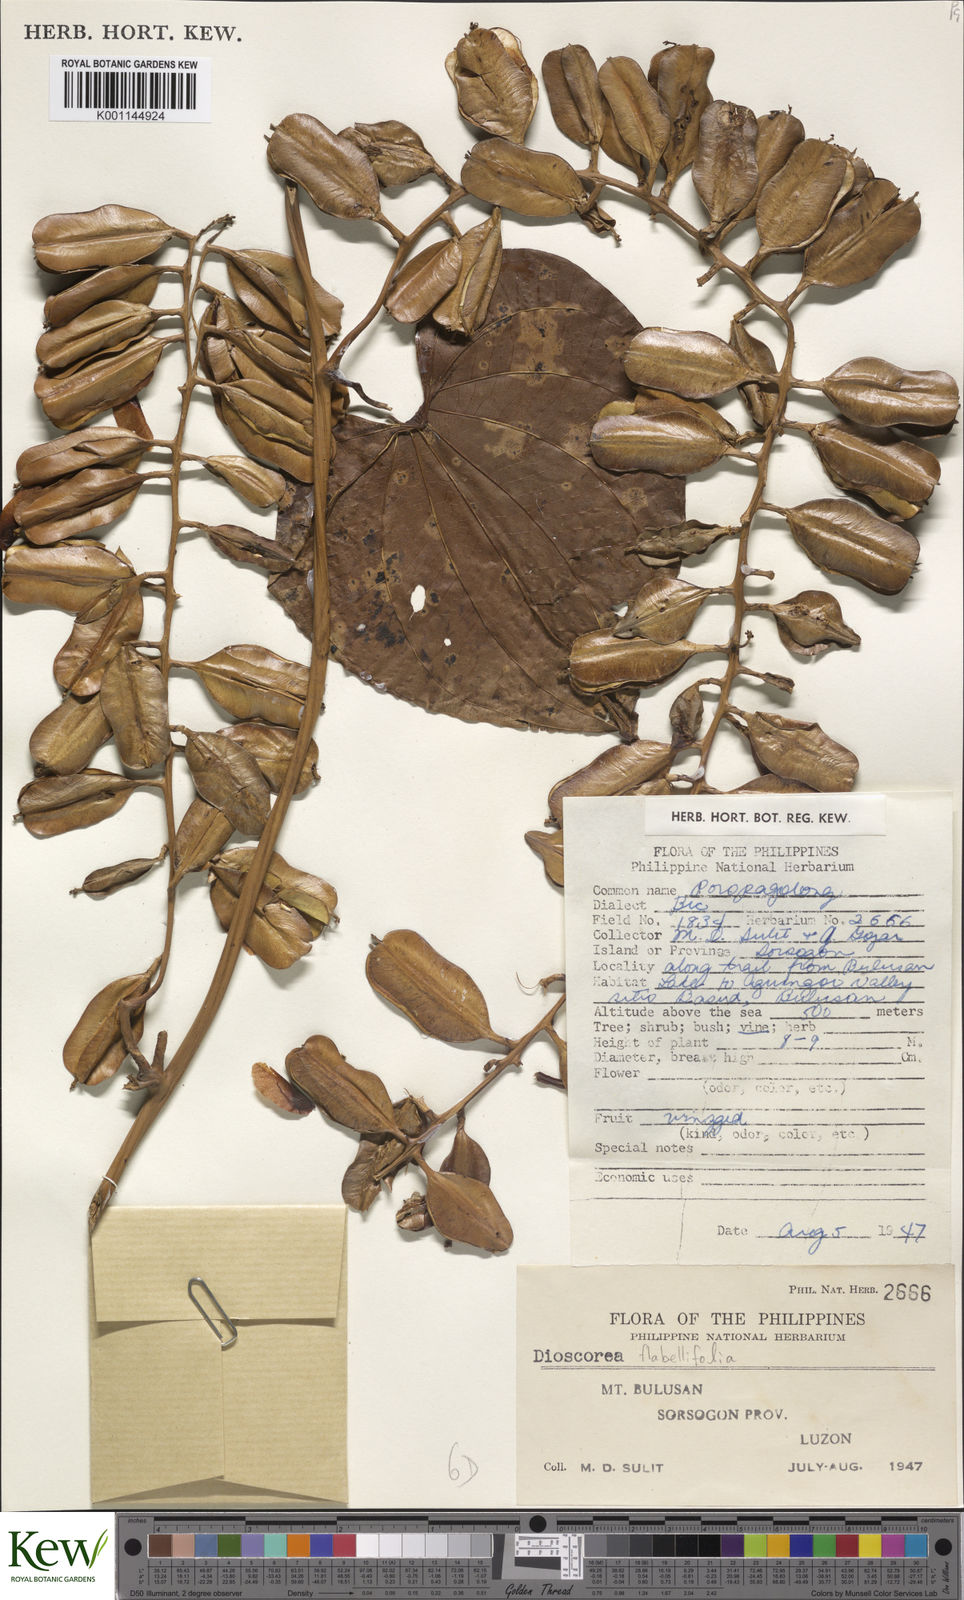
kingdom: Plantae
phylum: Tracheophyta
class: Liliopsida
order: Dioscoreales
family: Dioscoreaceae
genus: Dioscorea
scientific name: Dioscorea
